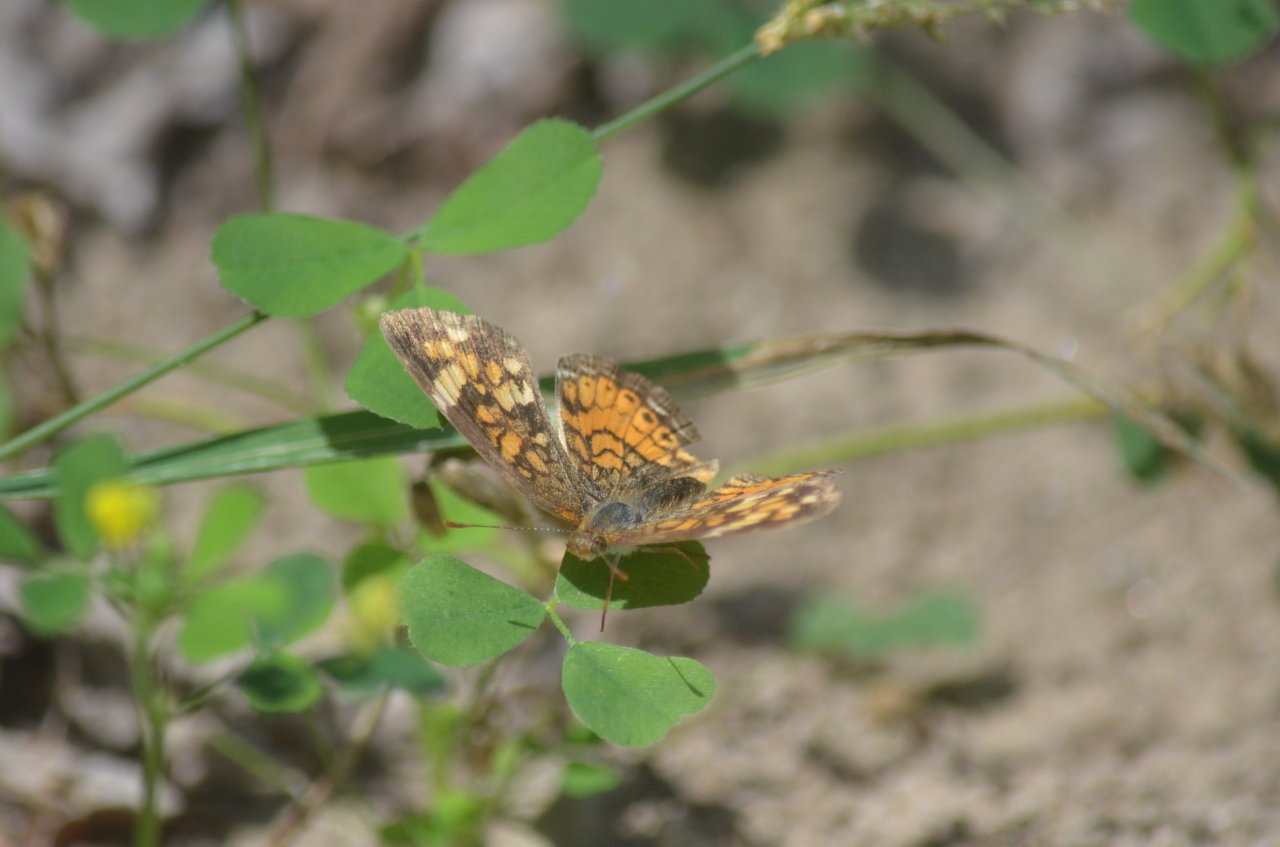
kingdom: Animalia
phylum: Arthropoda
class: Insecta
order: Lepidoptera
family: Nymphalidae
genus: Phyciodes
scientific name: Phyciodes tharos
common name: Northern Crescent
